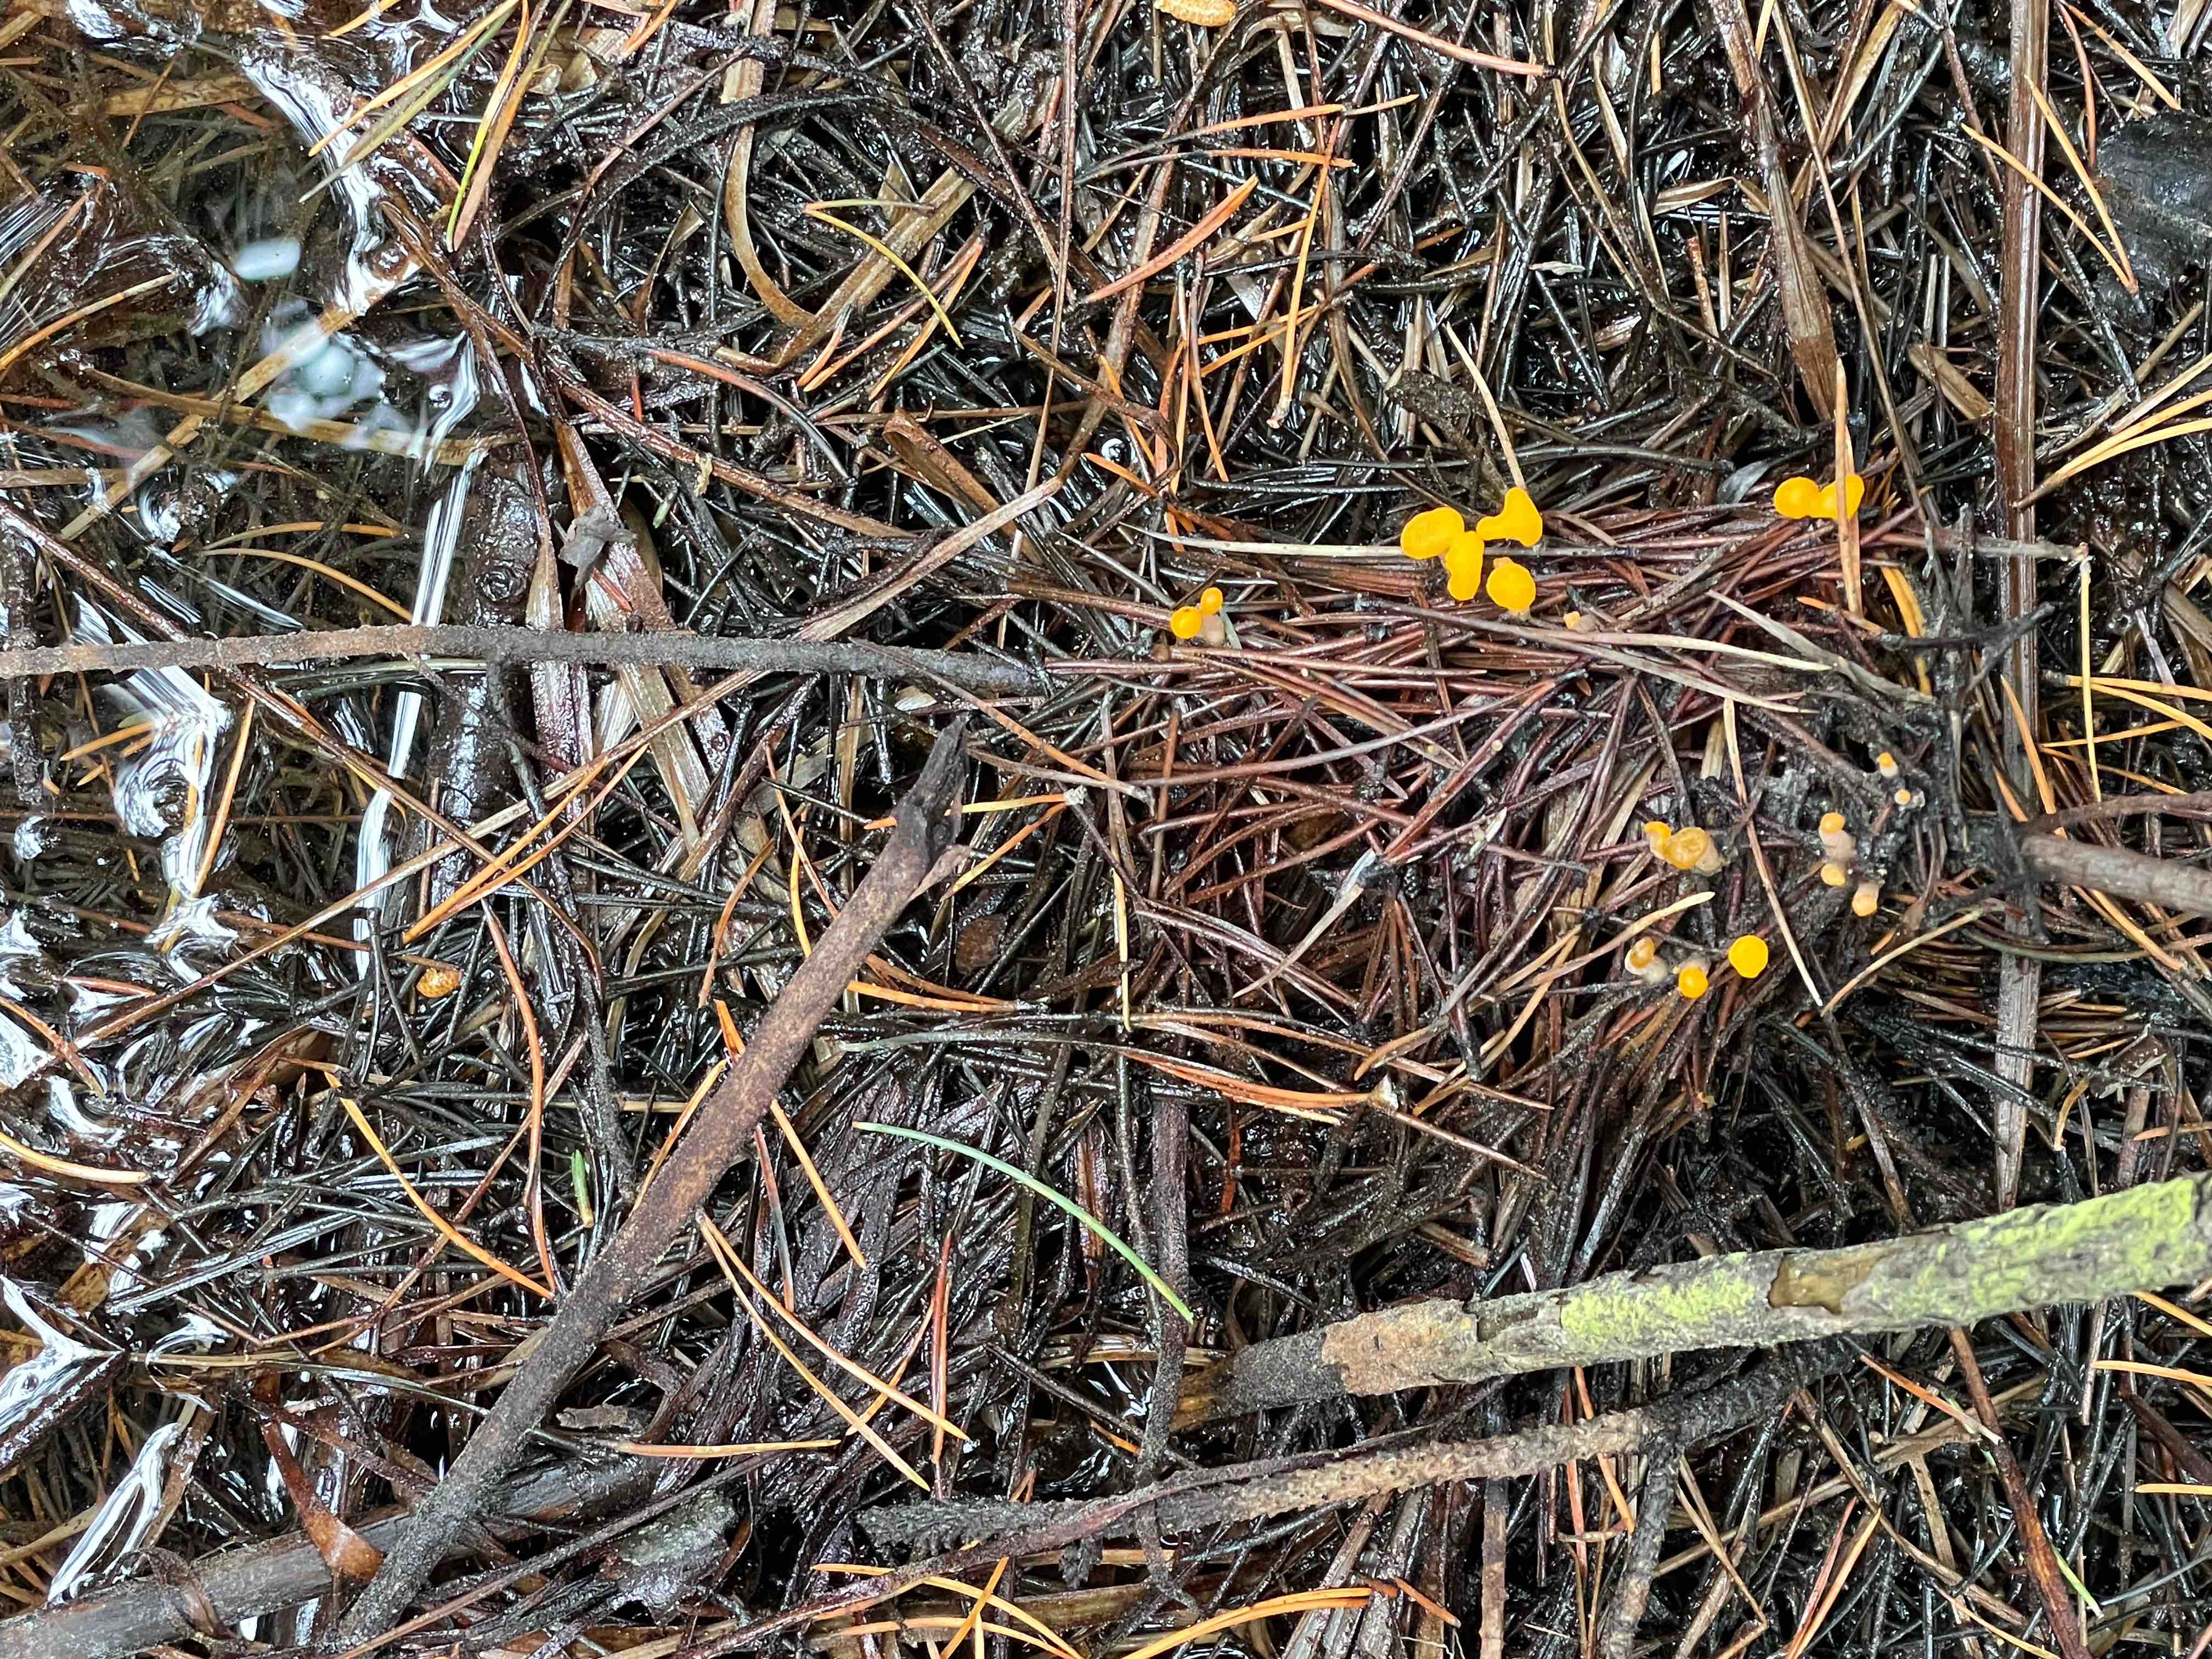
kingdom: Fungi
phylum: Ascomycota
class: Leotiomycetes
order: Helotiales
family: Cenangiaceae
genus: Mitrula
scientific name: Mitrula paludosa
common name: gul nøkketunge
